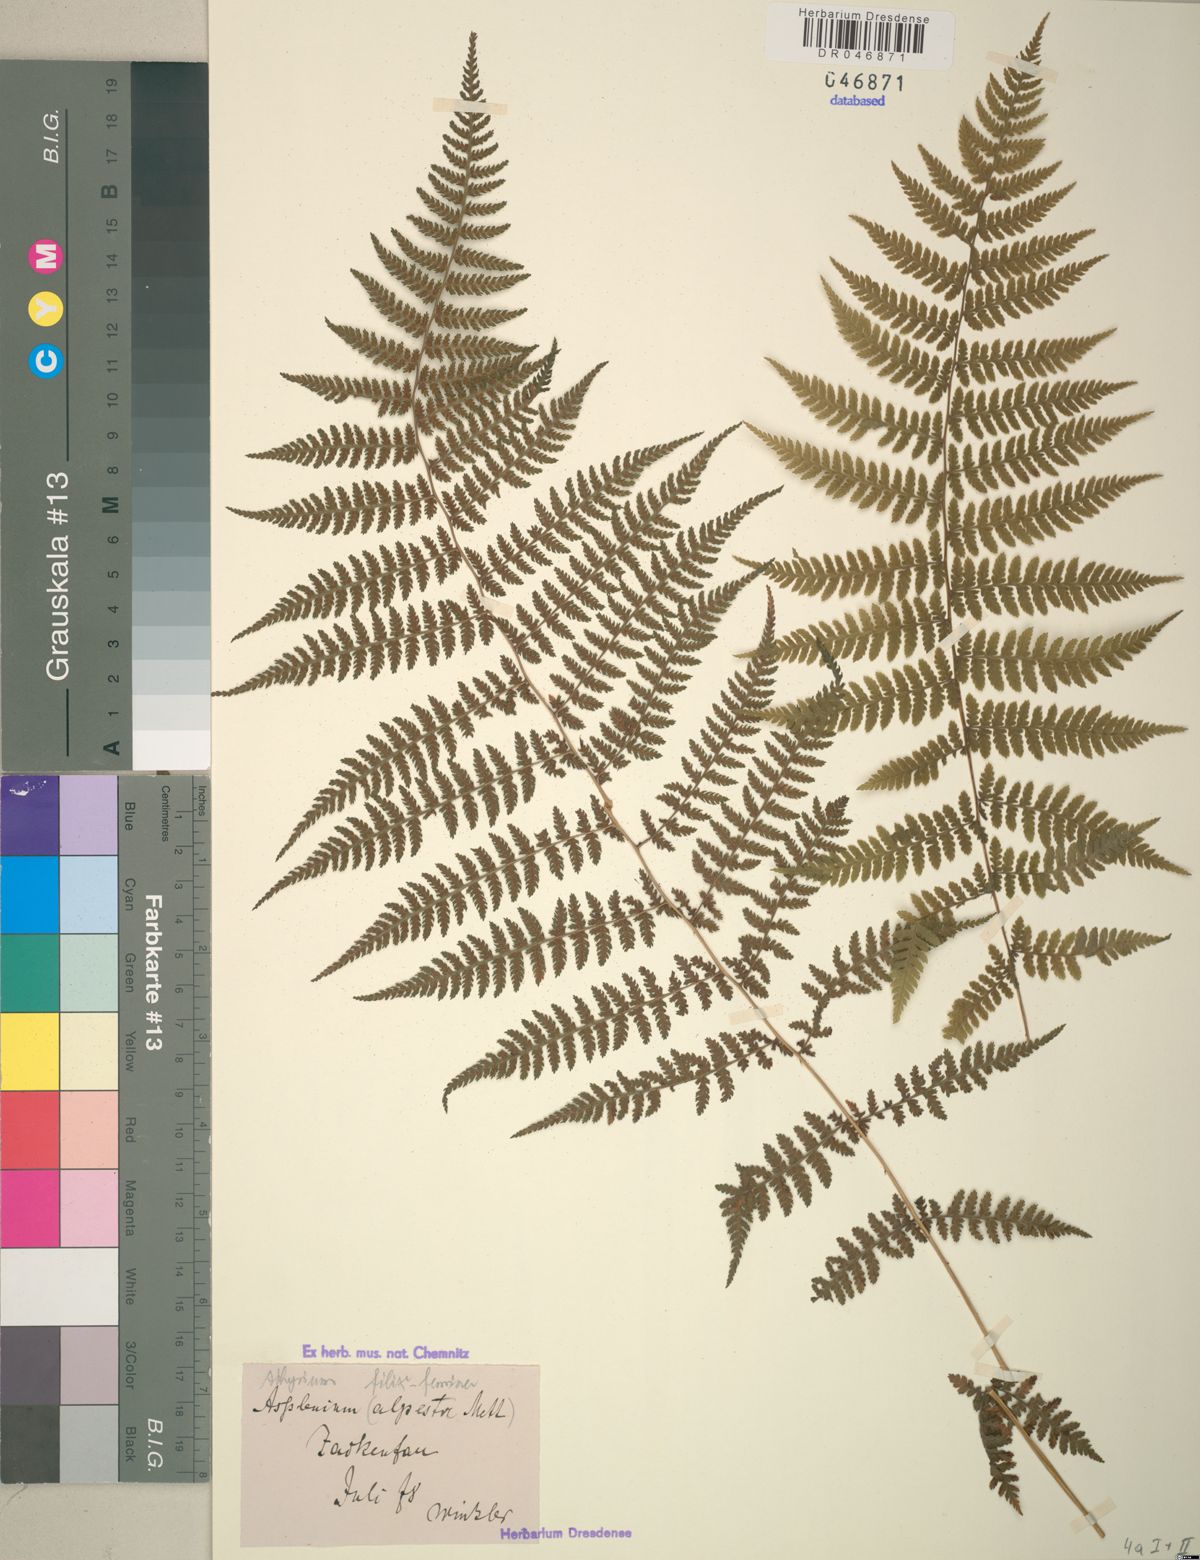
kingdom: Plantae
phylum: Tracheophyta
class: Polypodiopsida
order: Polypodiales
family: Athyriaceae
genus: Athyrium
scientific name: Athyrium filix-femina
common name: Lady fern
